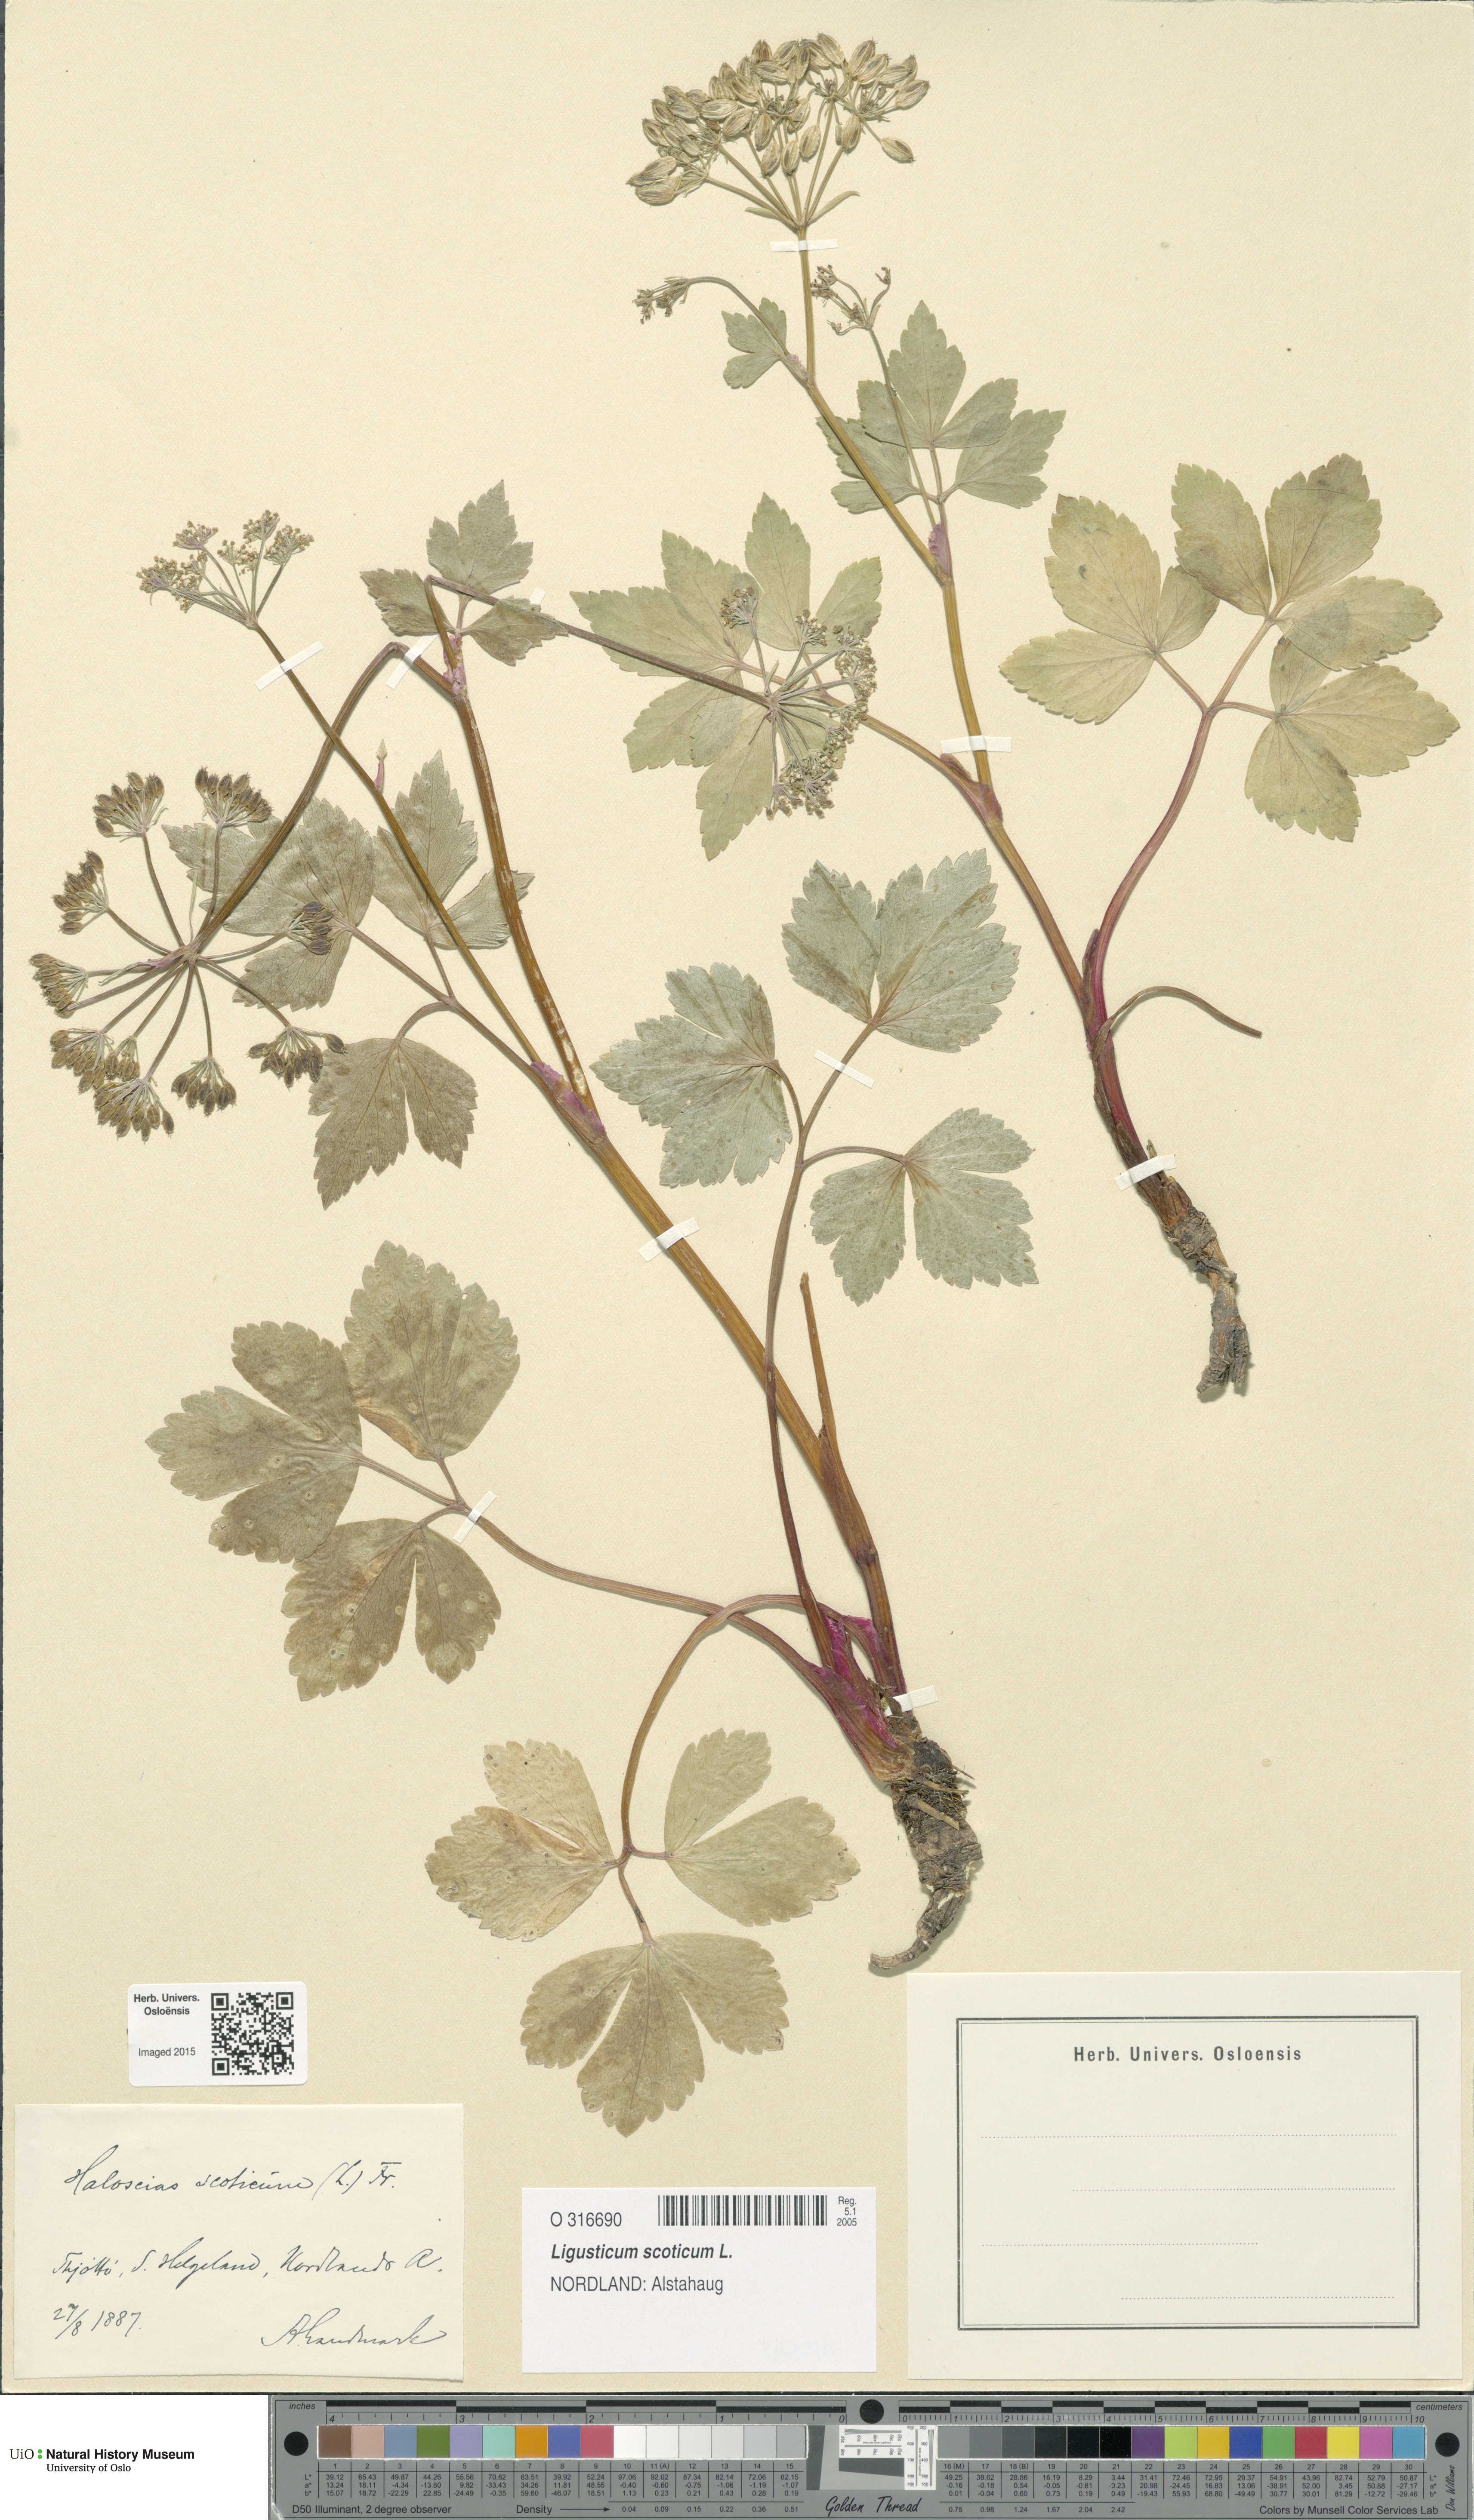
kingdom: Plantae
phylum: Tracheophyta
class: Magnoliopsida
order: Apiales
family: Apiaceae
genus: Ligusticum
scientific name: Ligusticum scothicum
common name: Beach lovage
